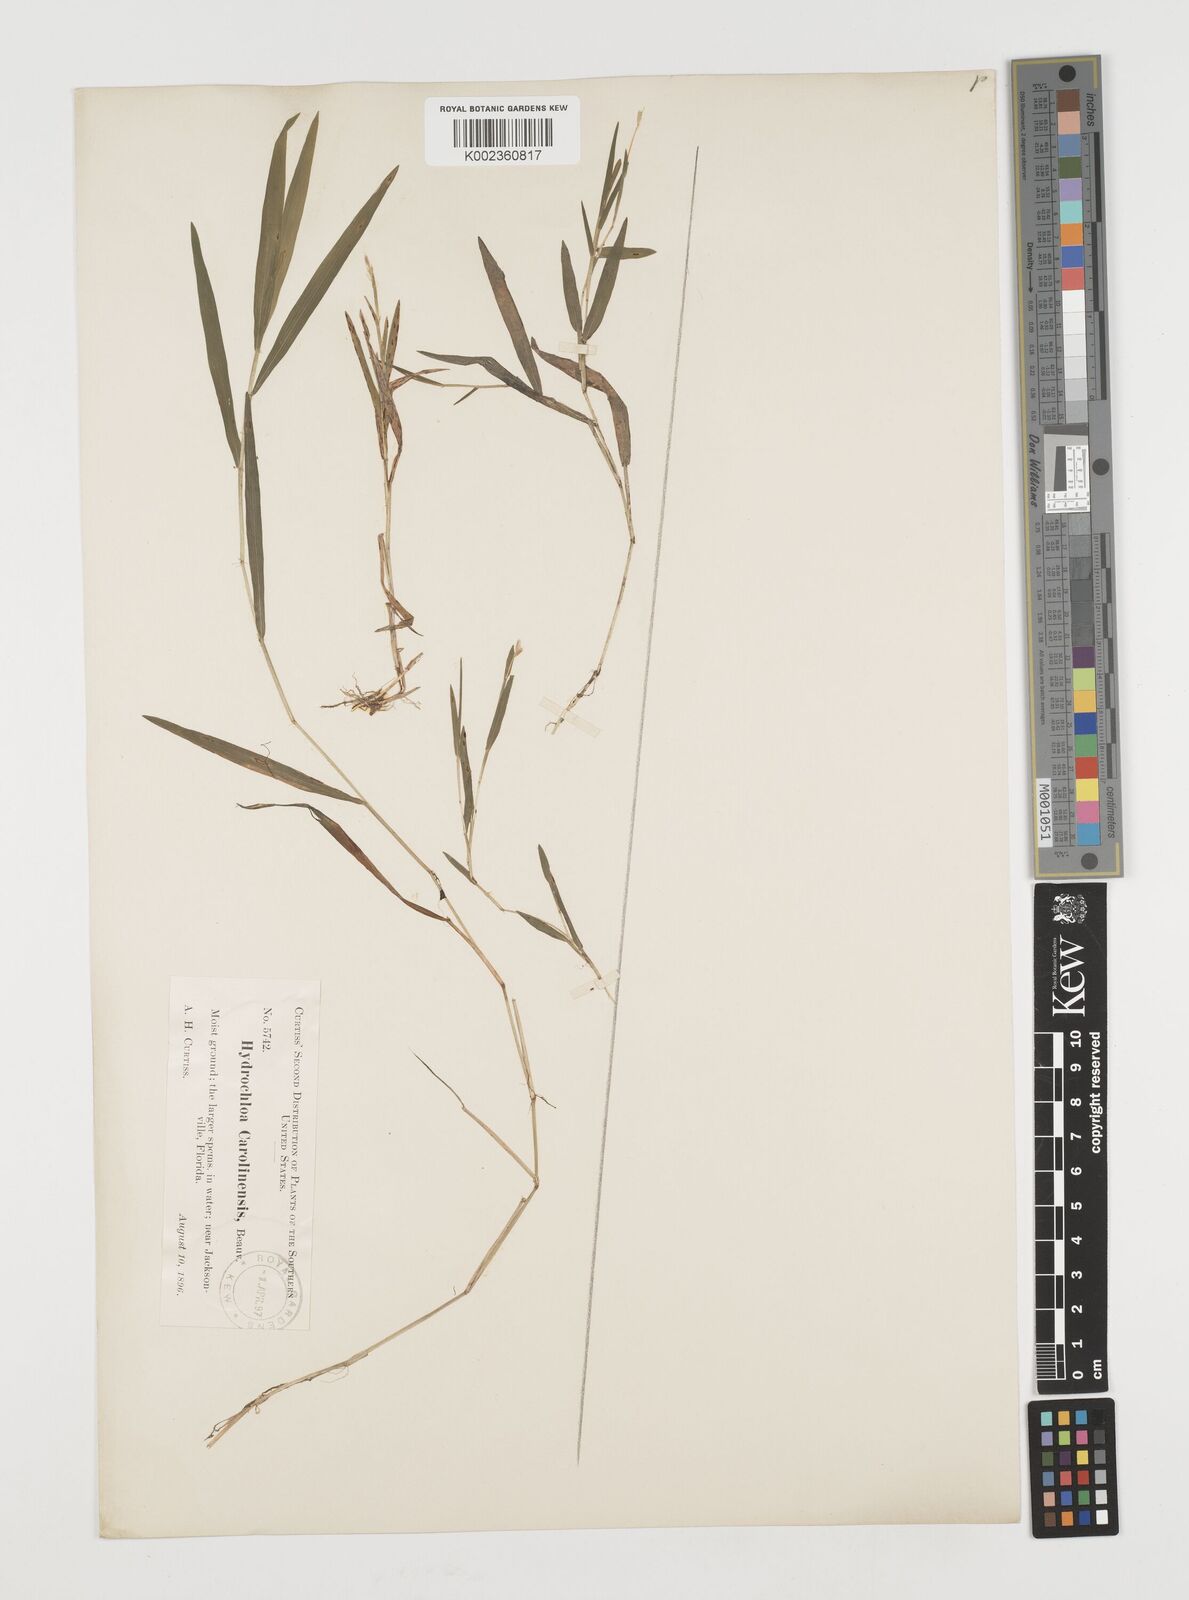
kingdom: Plantae
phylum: Tracheophyta
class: Liliopsida
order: Poales
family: Poaceae
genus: Luziola
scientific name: Luziola fluitans
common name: Silverleaf grass
